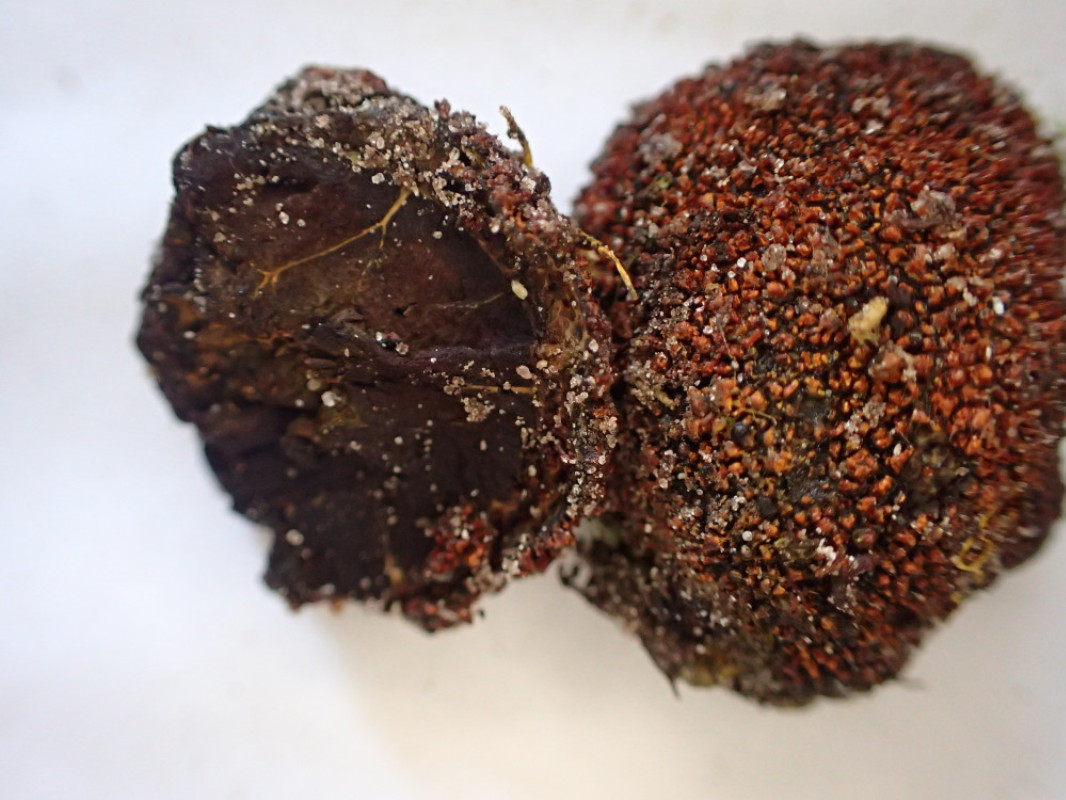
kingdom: Fungi
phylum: Ascomycota
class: Eurotiomycetes
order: Eurotiales
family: Elaphomycetaceae
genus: Elaphomyces
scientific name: Elaphomyces
